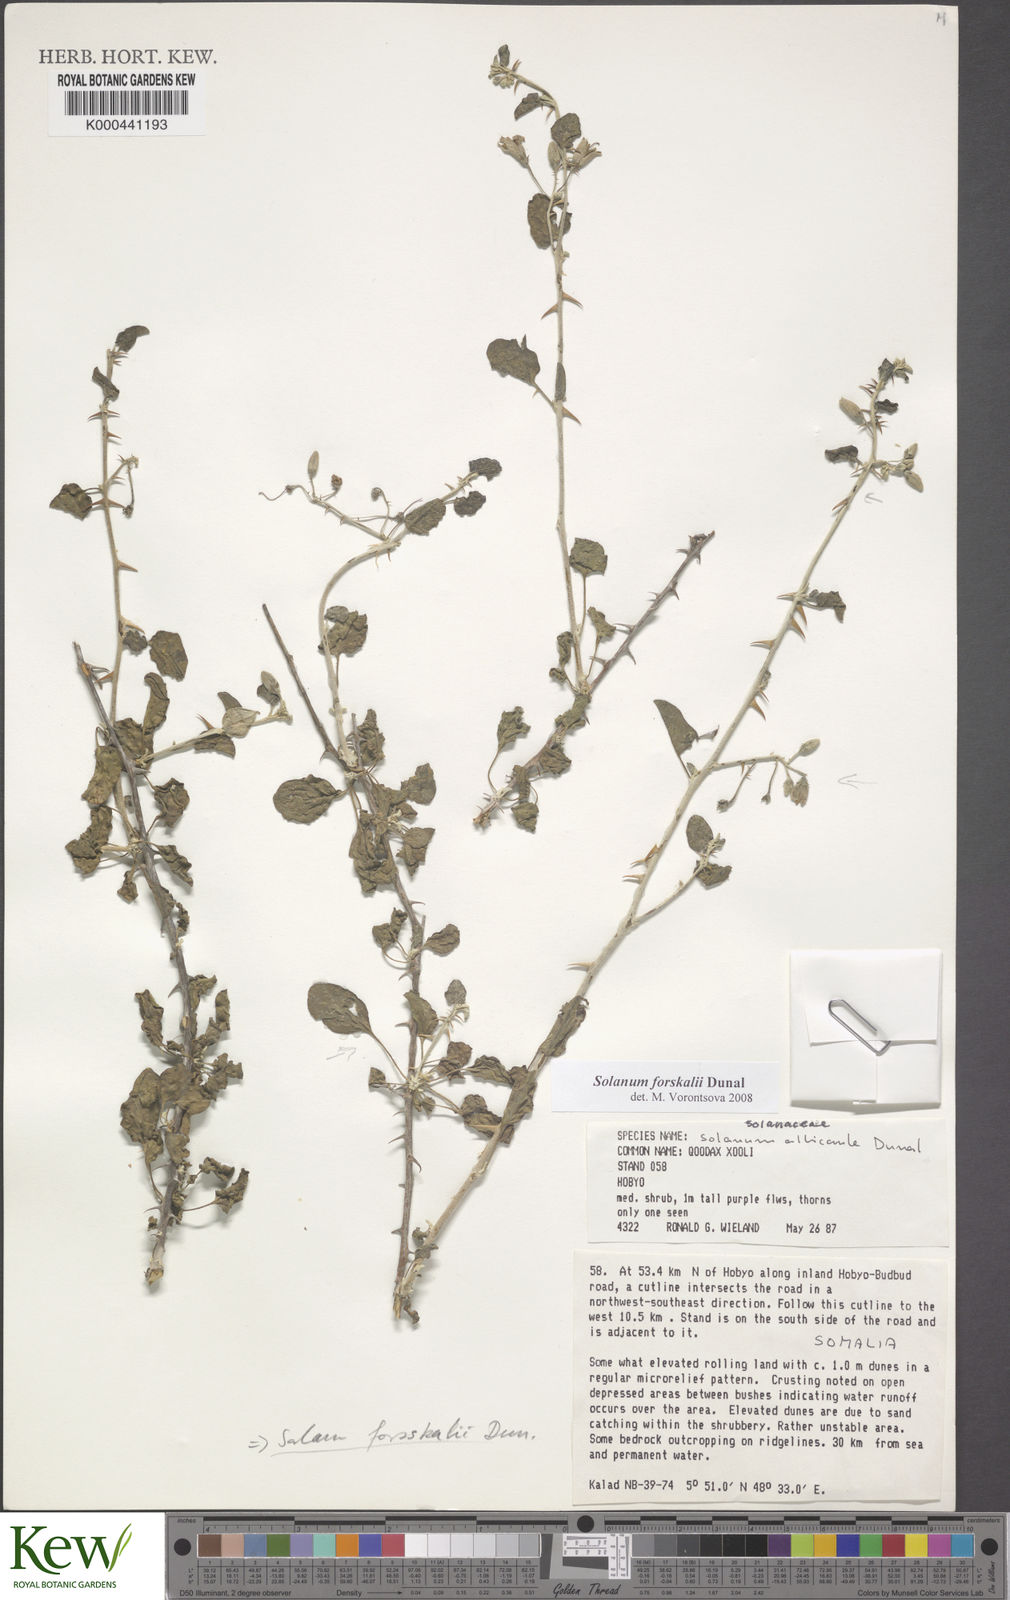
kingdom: Plantae
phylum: Tracheophyta
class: Magnoliopsida
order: Solanales
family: Solanaceae
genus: Solanum
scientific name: Solanum
